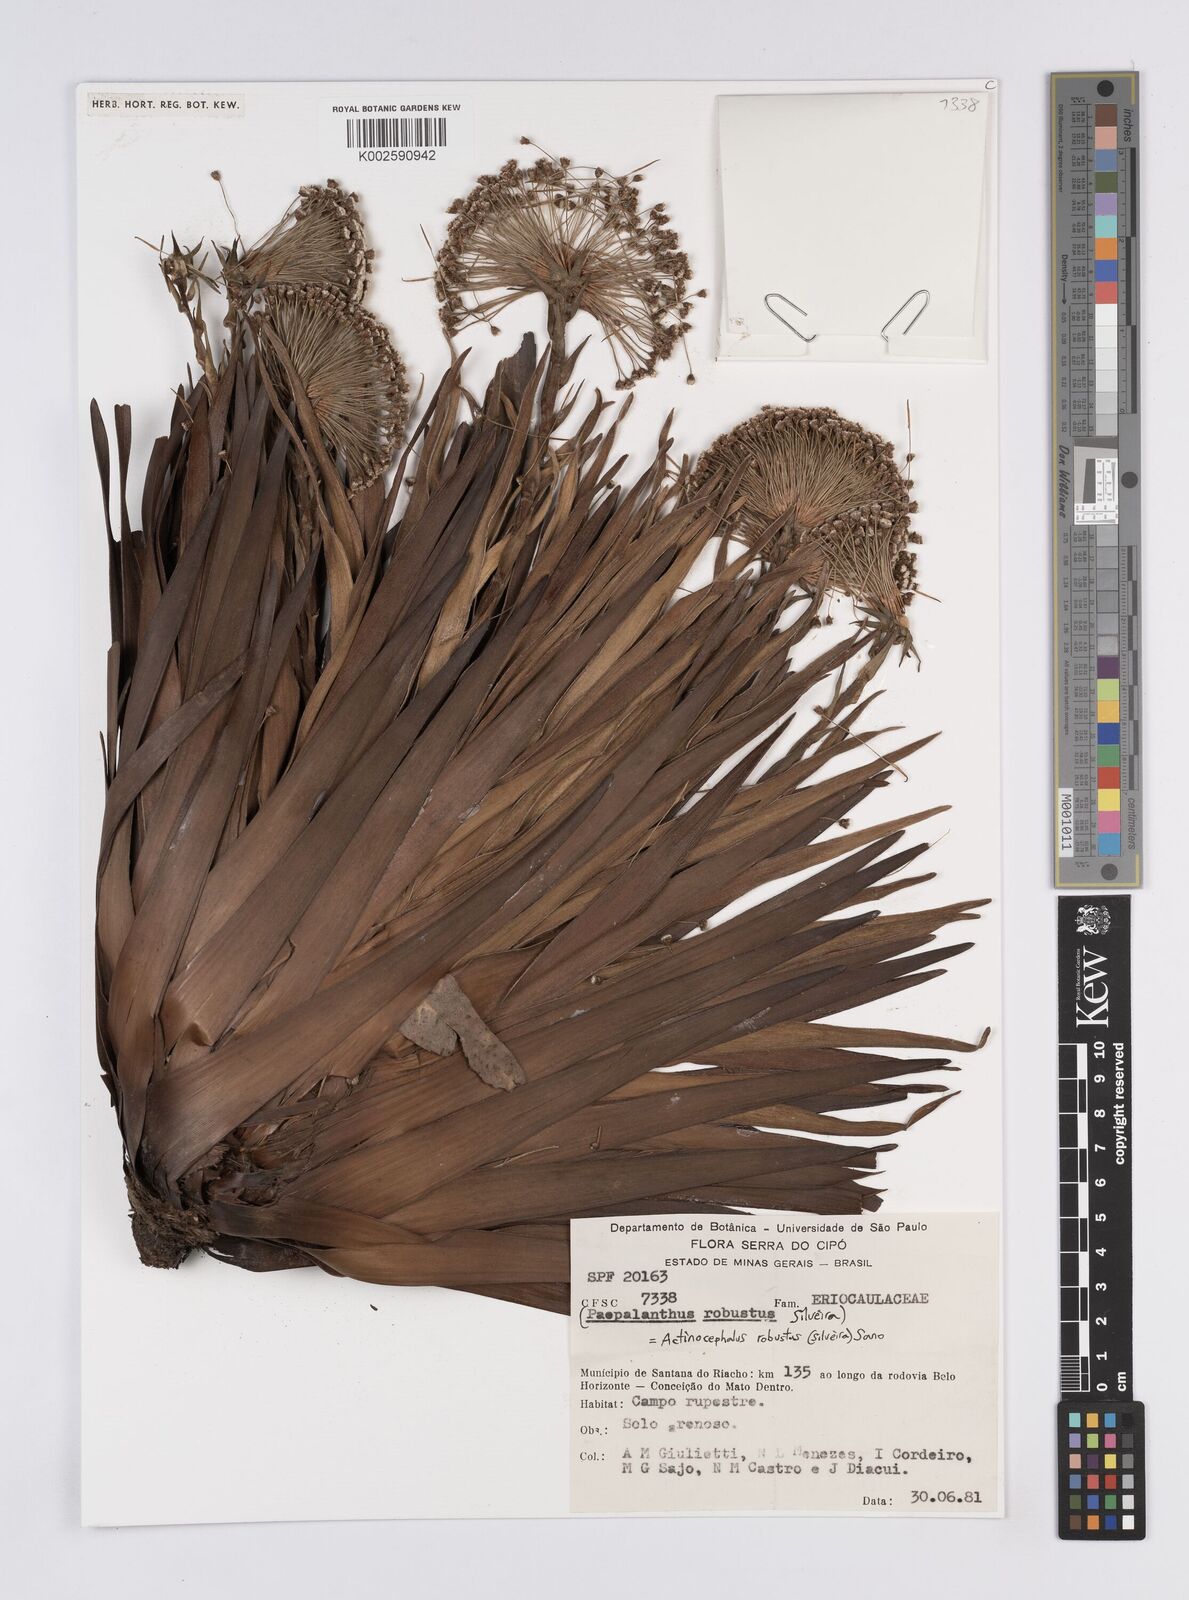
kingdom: Plantae
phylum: Tracheophyta
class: Liliopsida
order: Poales
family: Eriocaulaceae
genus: Paepalanthus
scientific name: Paepalanthus robustus
